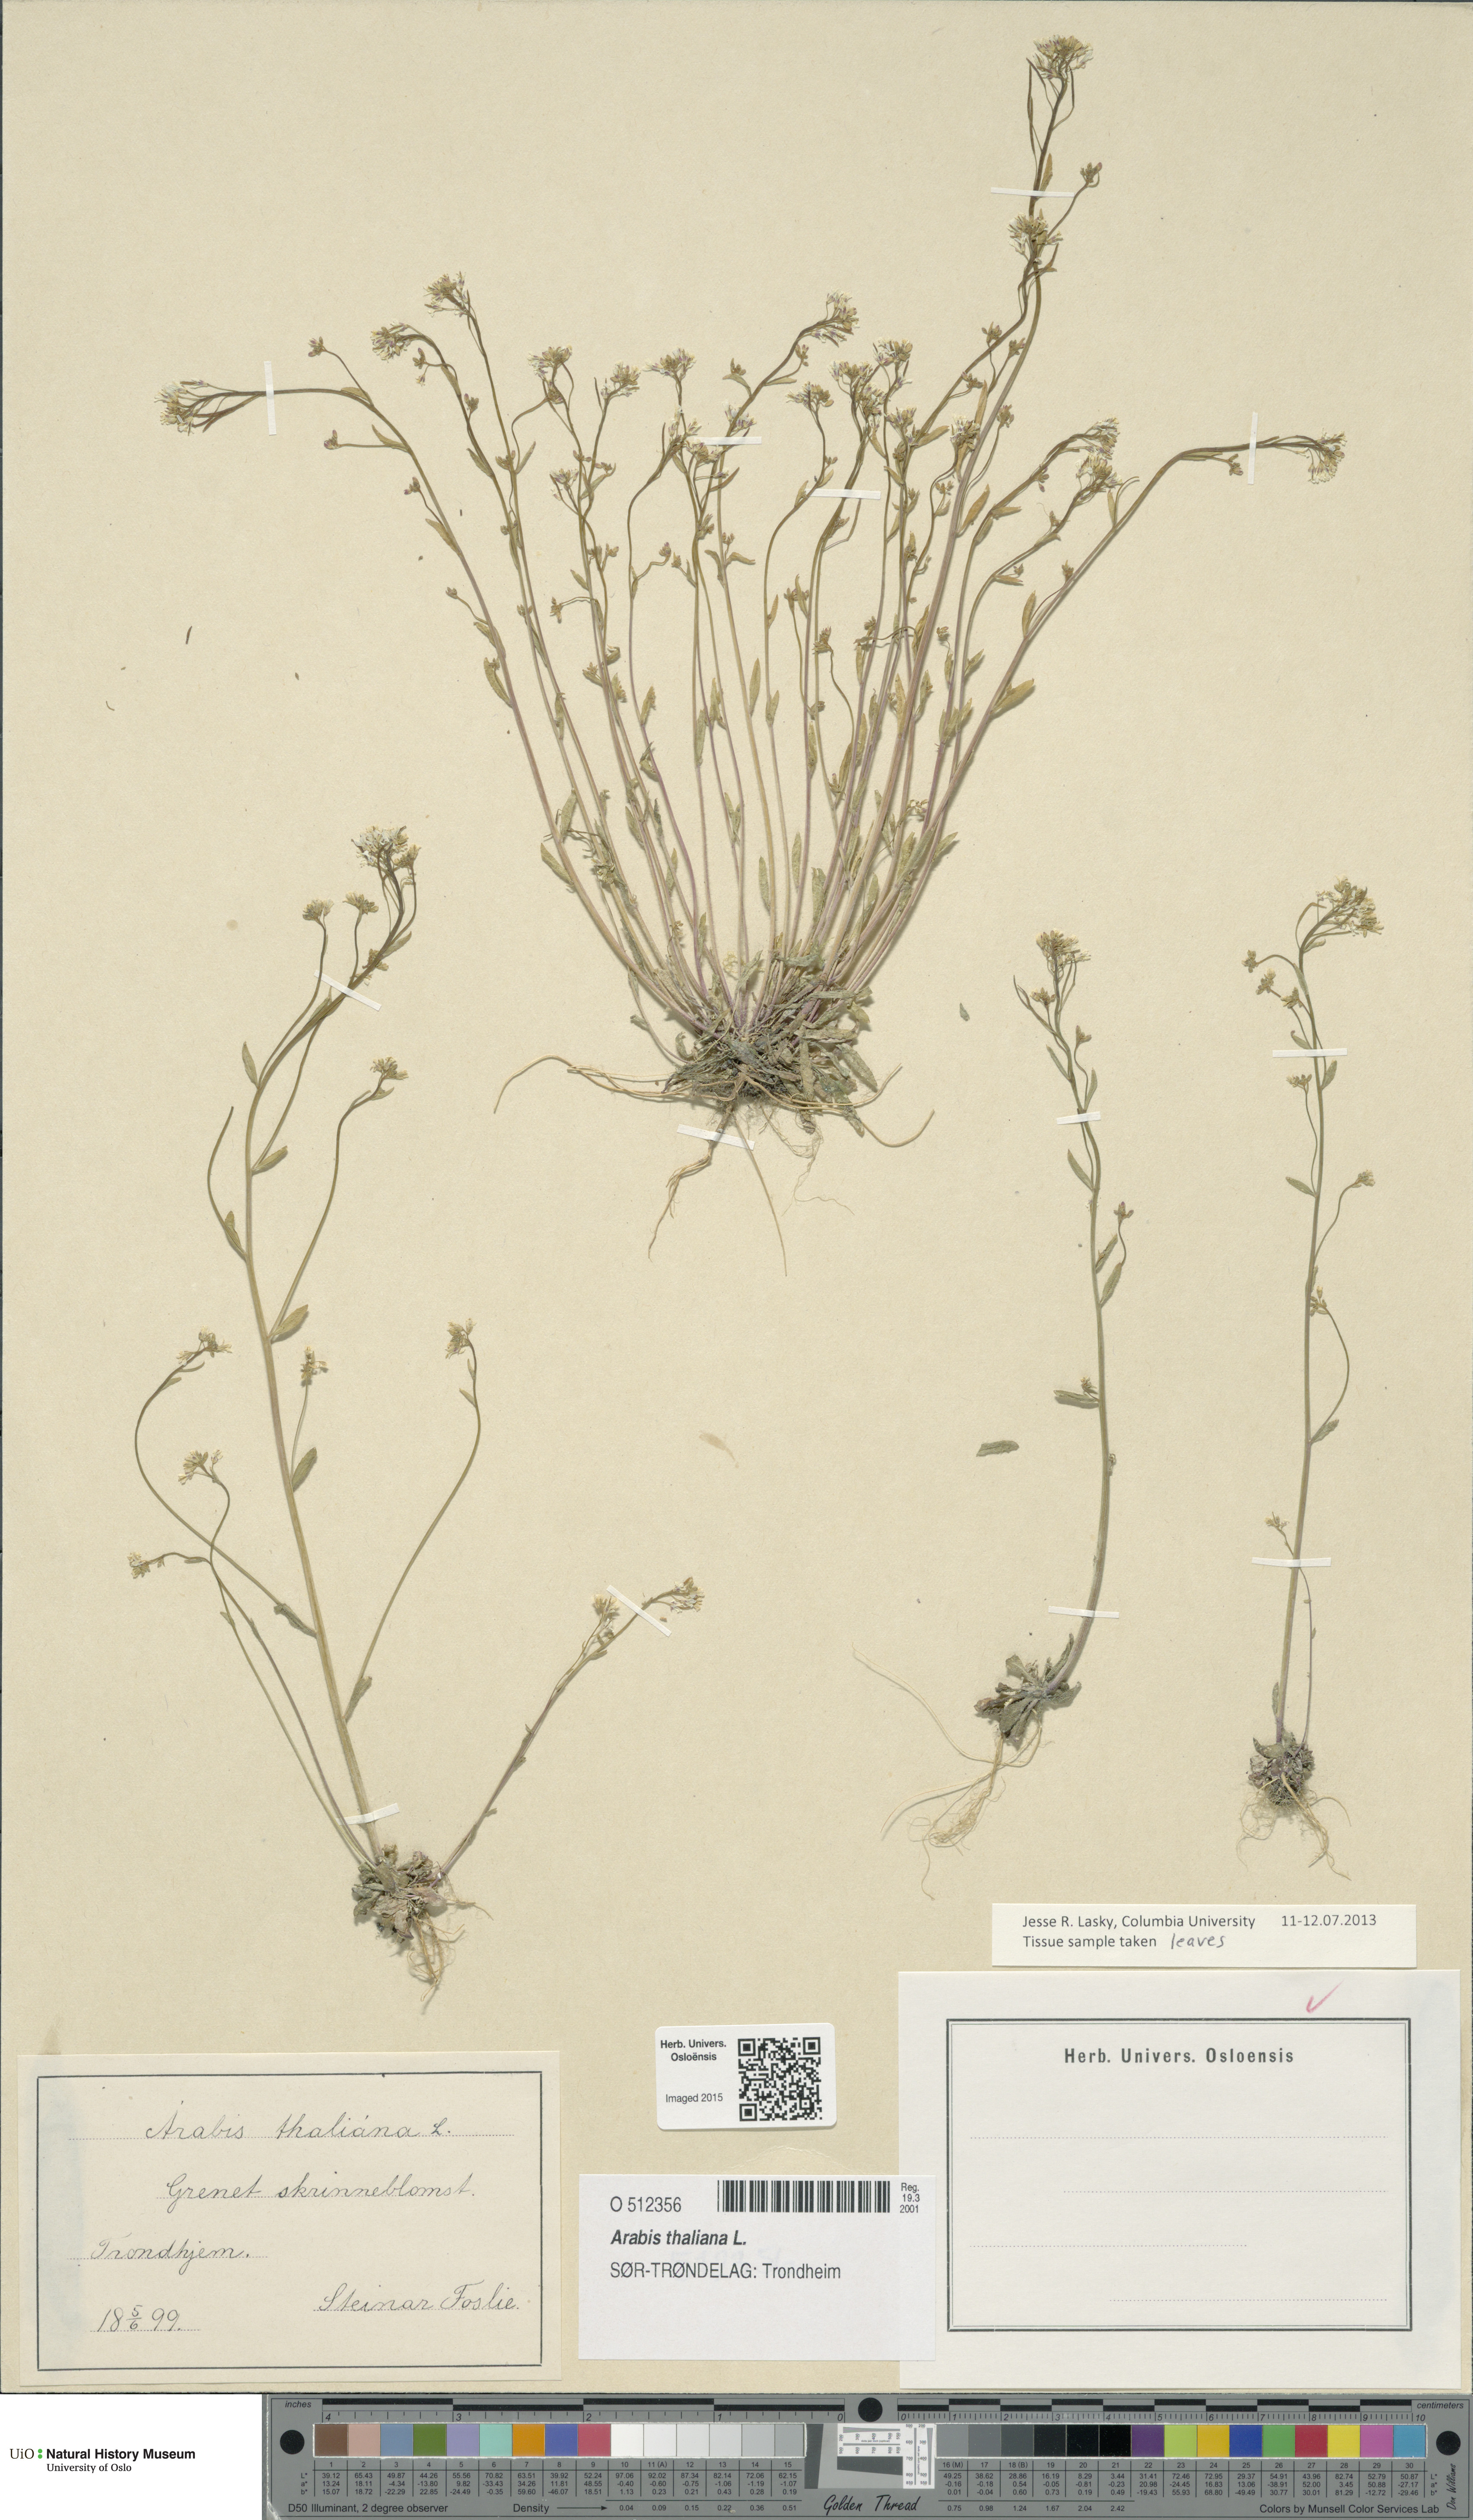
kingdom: Plantae
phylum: Tracheophyta
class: Magnoliopsida
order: Brassicales
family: Brassicaceae
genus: Arabidopsis
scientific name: Arabidopsis thaliana
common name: Thale cress
